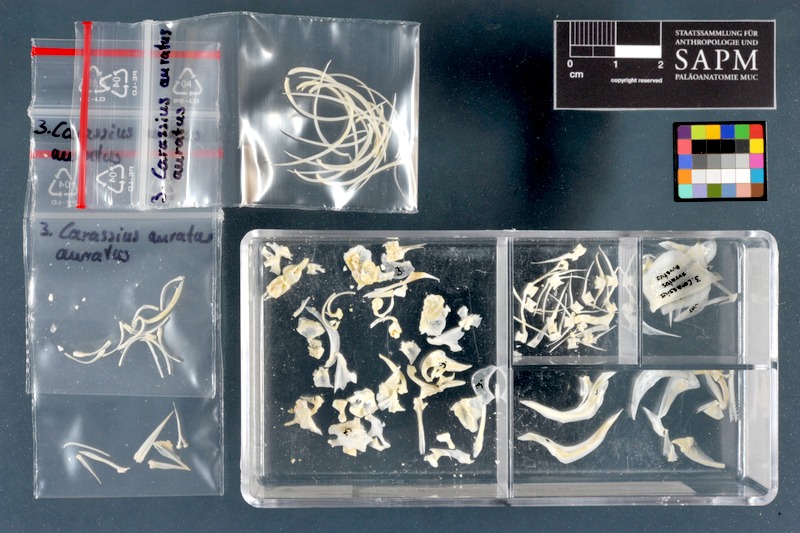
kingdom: Animalia
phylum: Chordata
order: Cypriniformes
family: Cyprinidae
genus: Carassius
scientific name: Carassius auratus
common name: Goldfish
